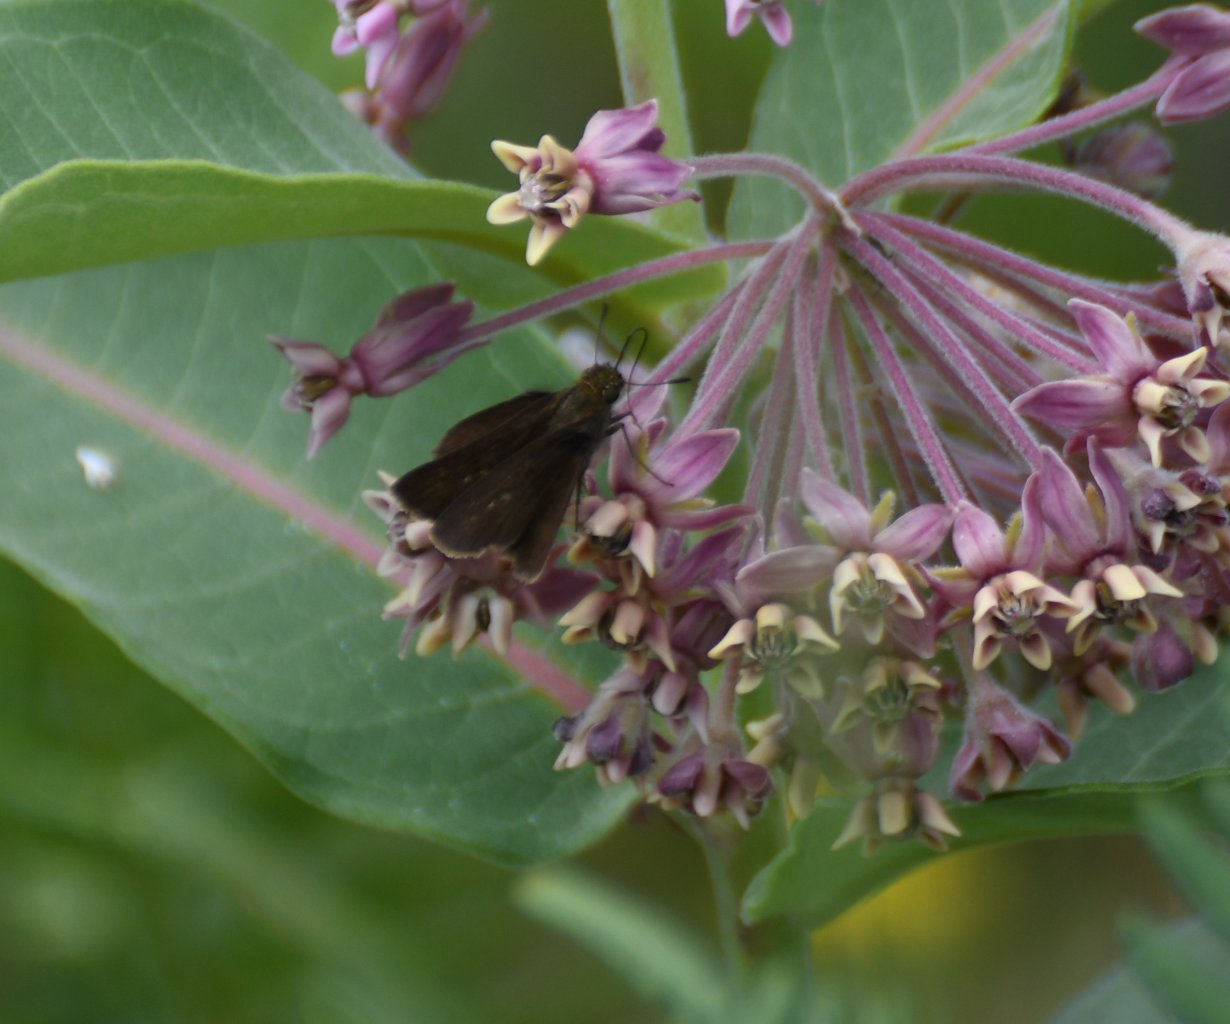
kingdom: Animalia
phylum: Arthropoda
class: Insecta
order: Lepidoptera
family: Hesperiidae
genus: Euphyes
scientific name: Euphyes vestris
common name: Dun Skipper
